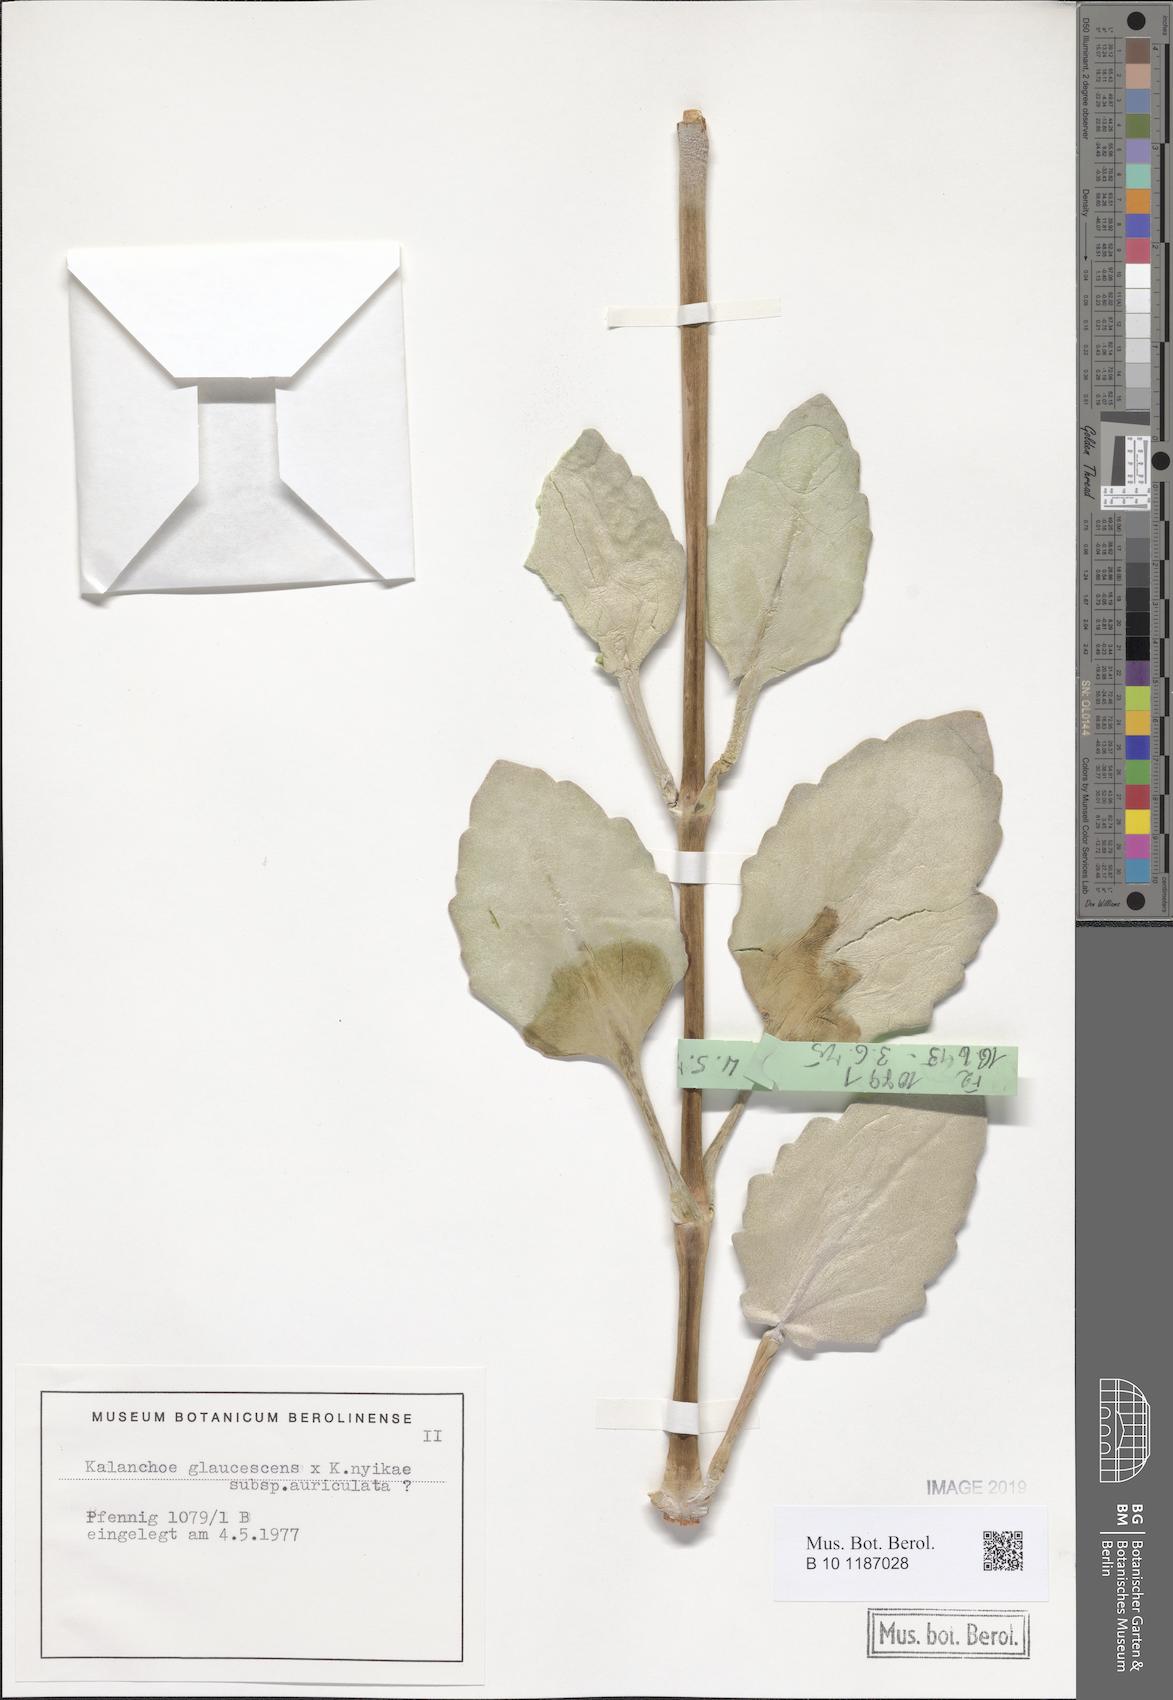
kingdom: Plantae
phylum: Tracheophyta
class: Magnoliopsida
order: Saxifragales
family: Crassulaceae
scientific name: Crassulaceae
